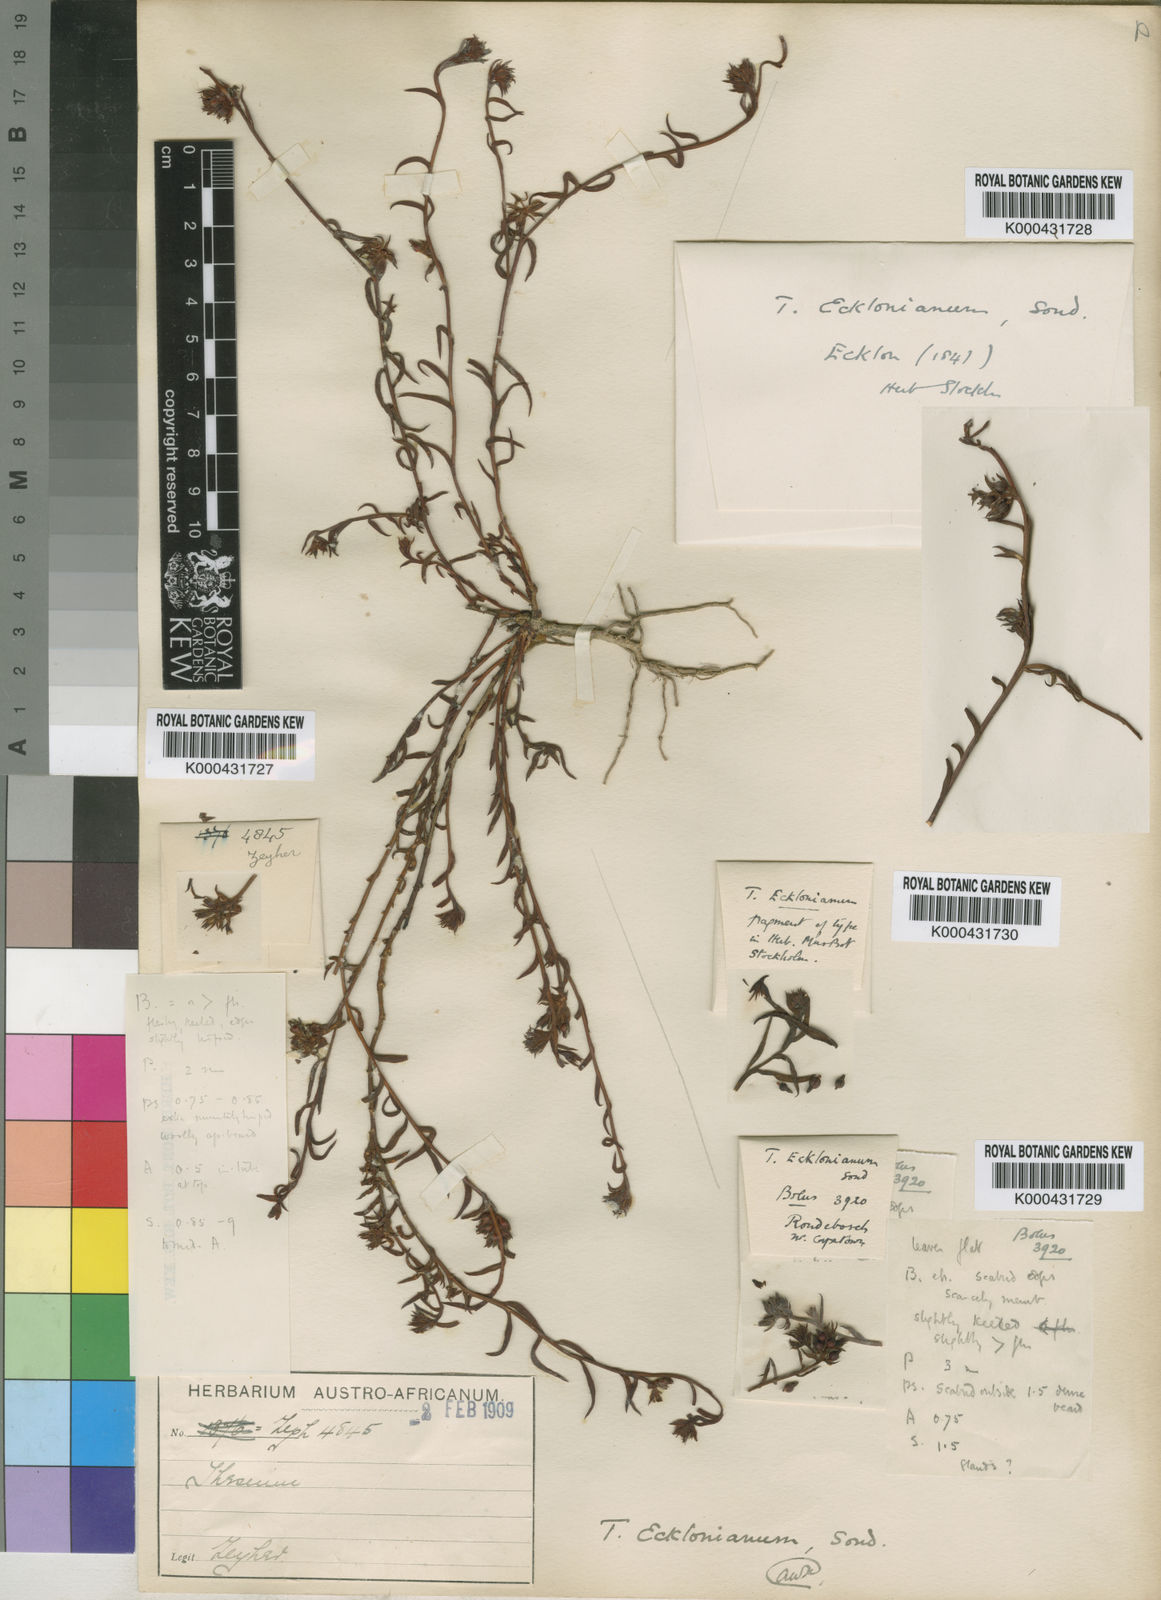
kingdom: Plantae
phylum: Tracheophyta
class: Magnoliopsida
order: Santalales
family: Thesiaceae
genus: Thesium
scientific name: Thesium ecklonianum
